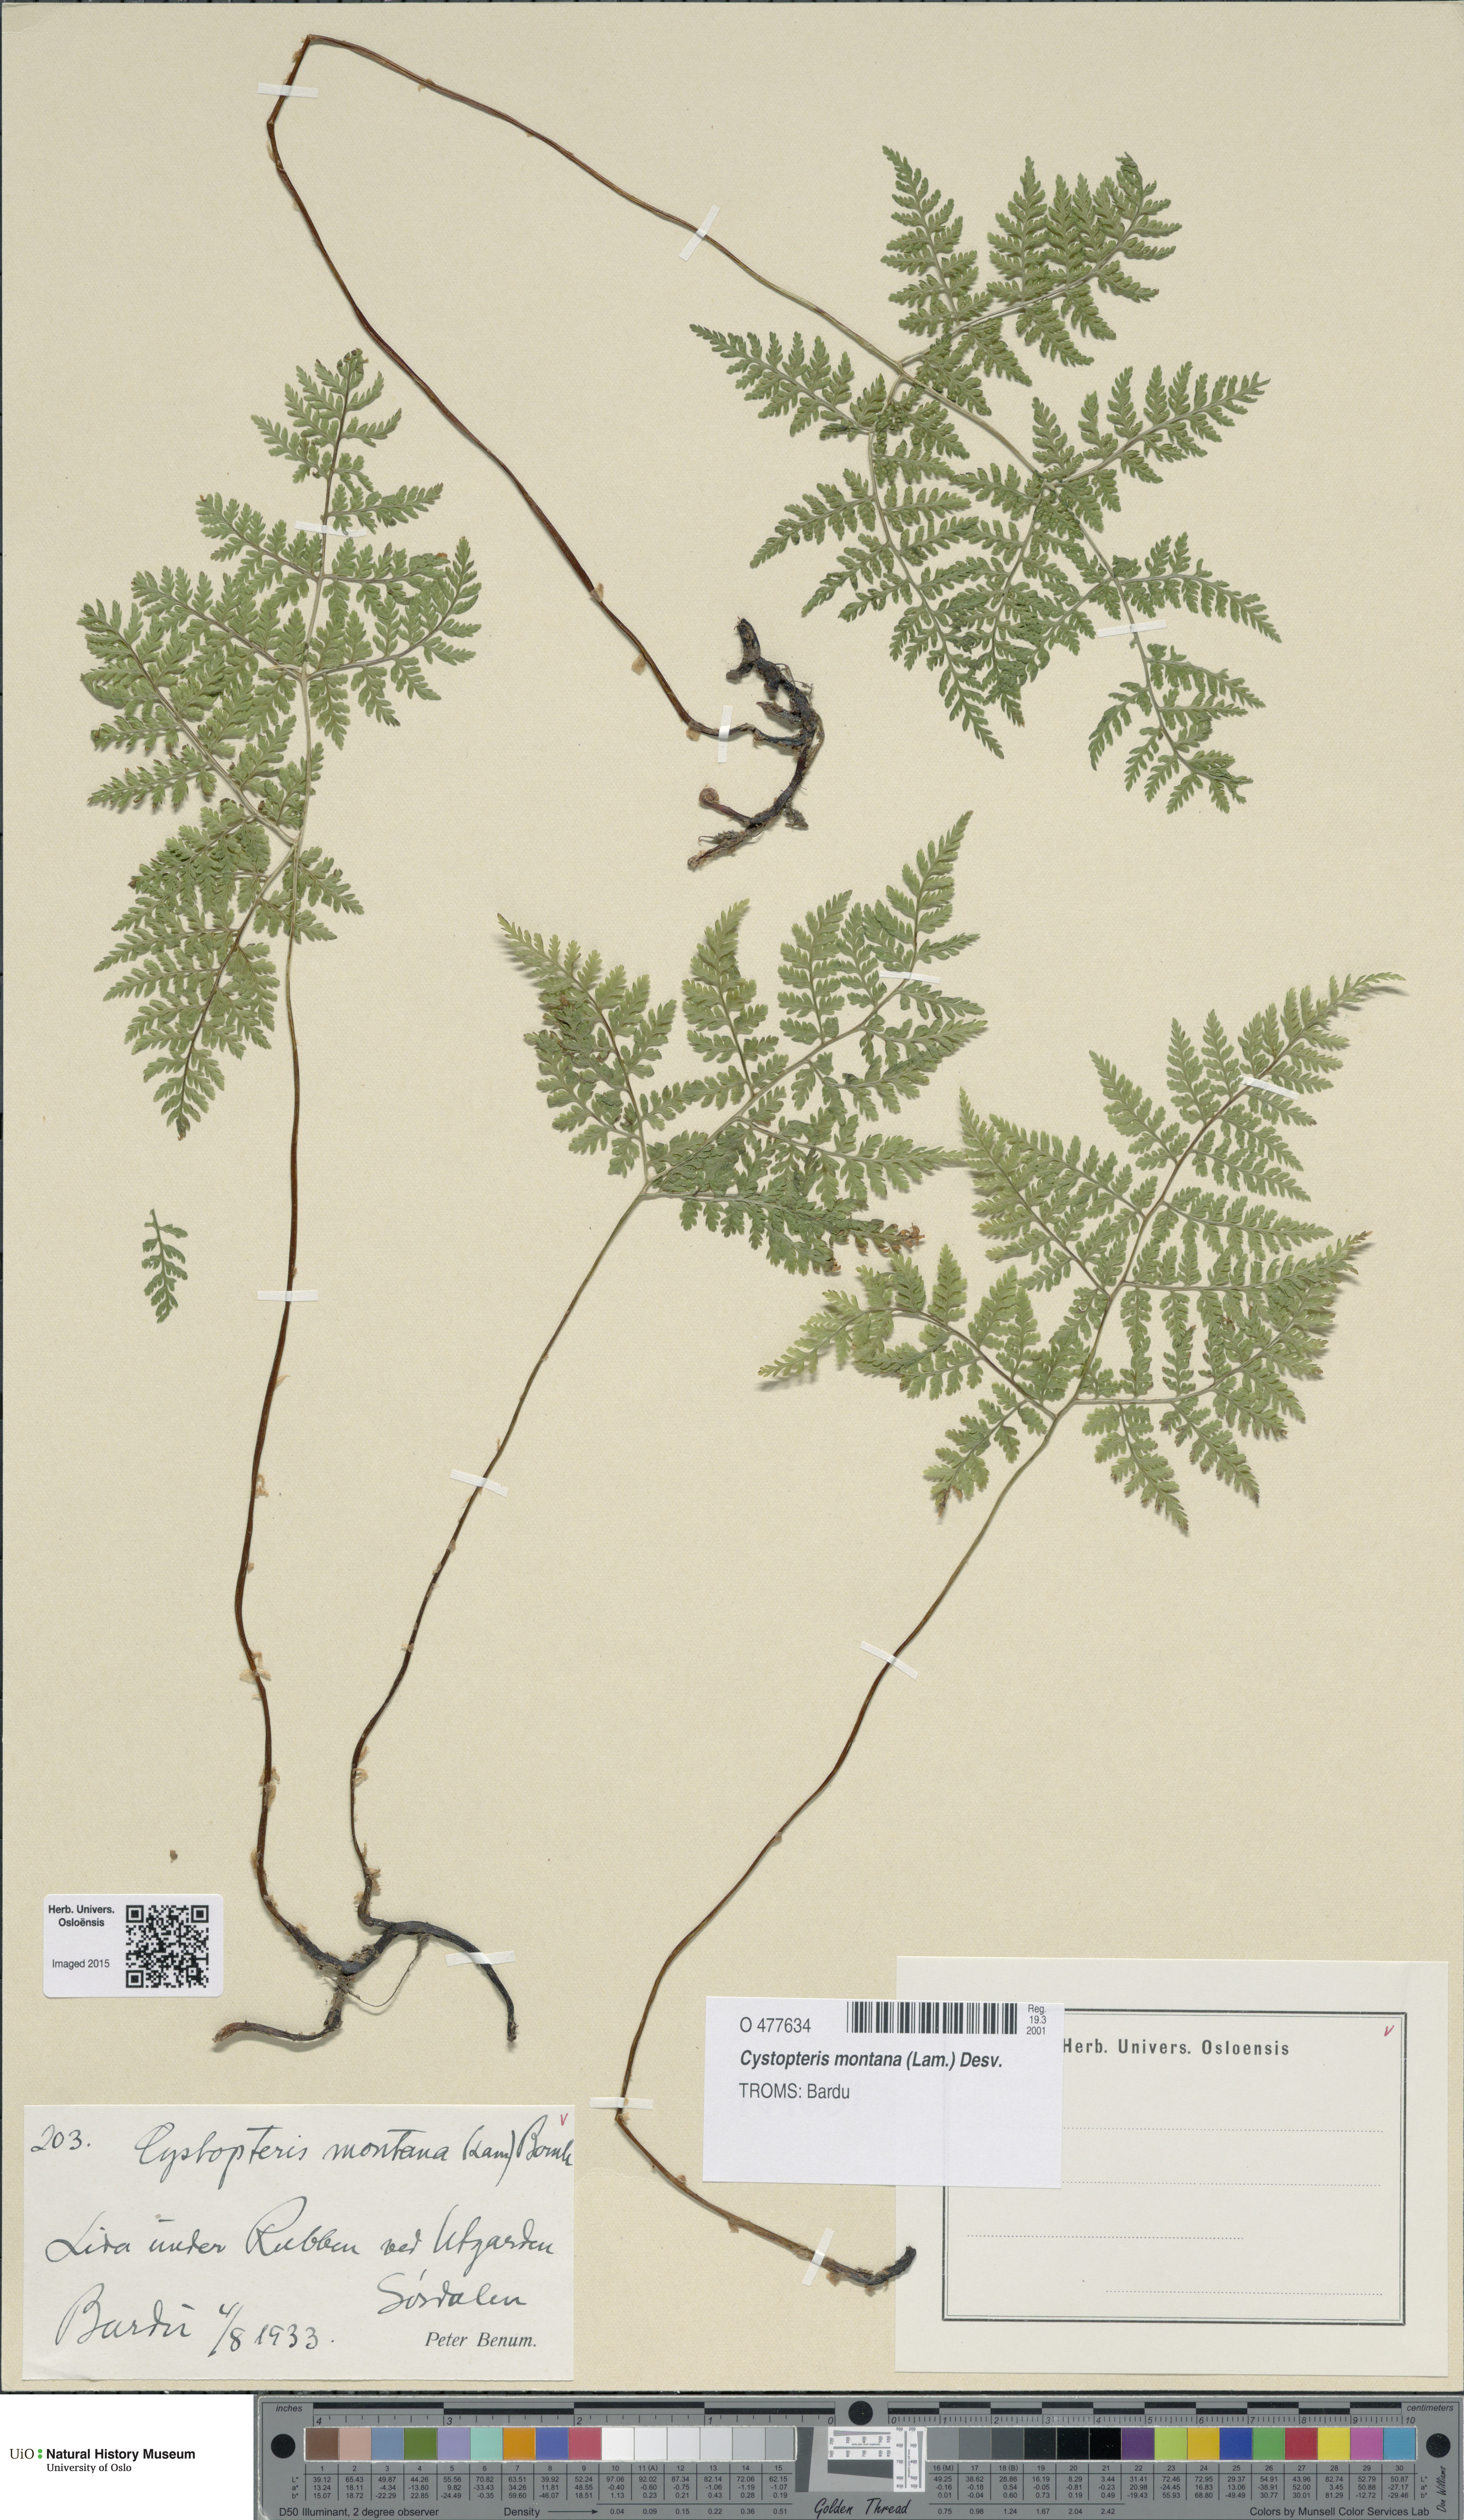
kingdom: Plantae
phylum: Tracheophyta
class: Polypodiopsida
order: Polypodiales
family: Cystopteridaceae
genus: Cystopteris
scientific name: Cystopteris montana
